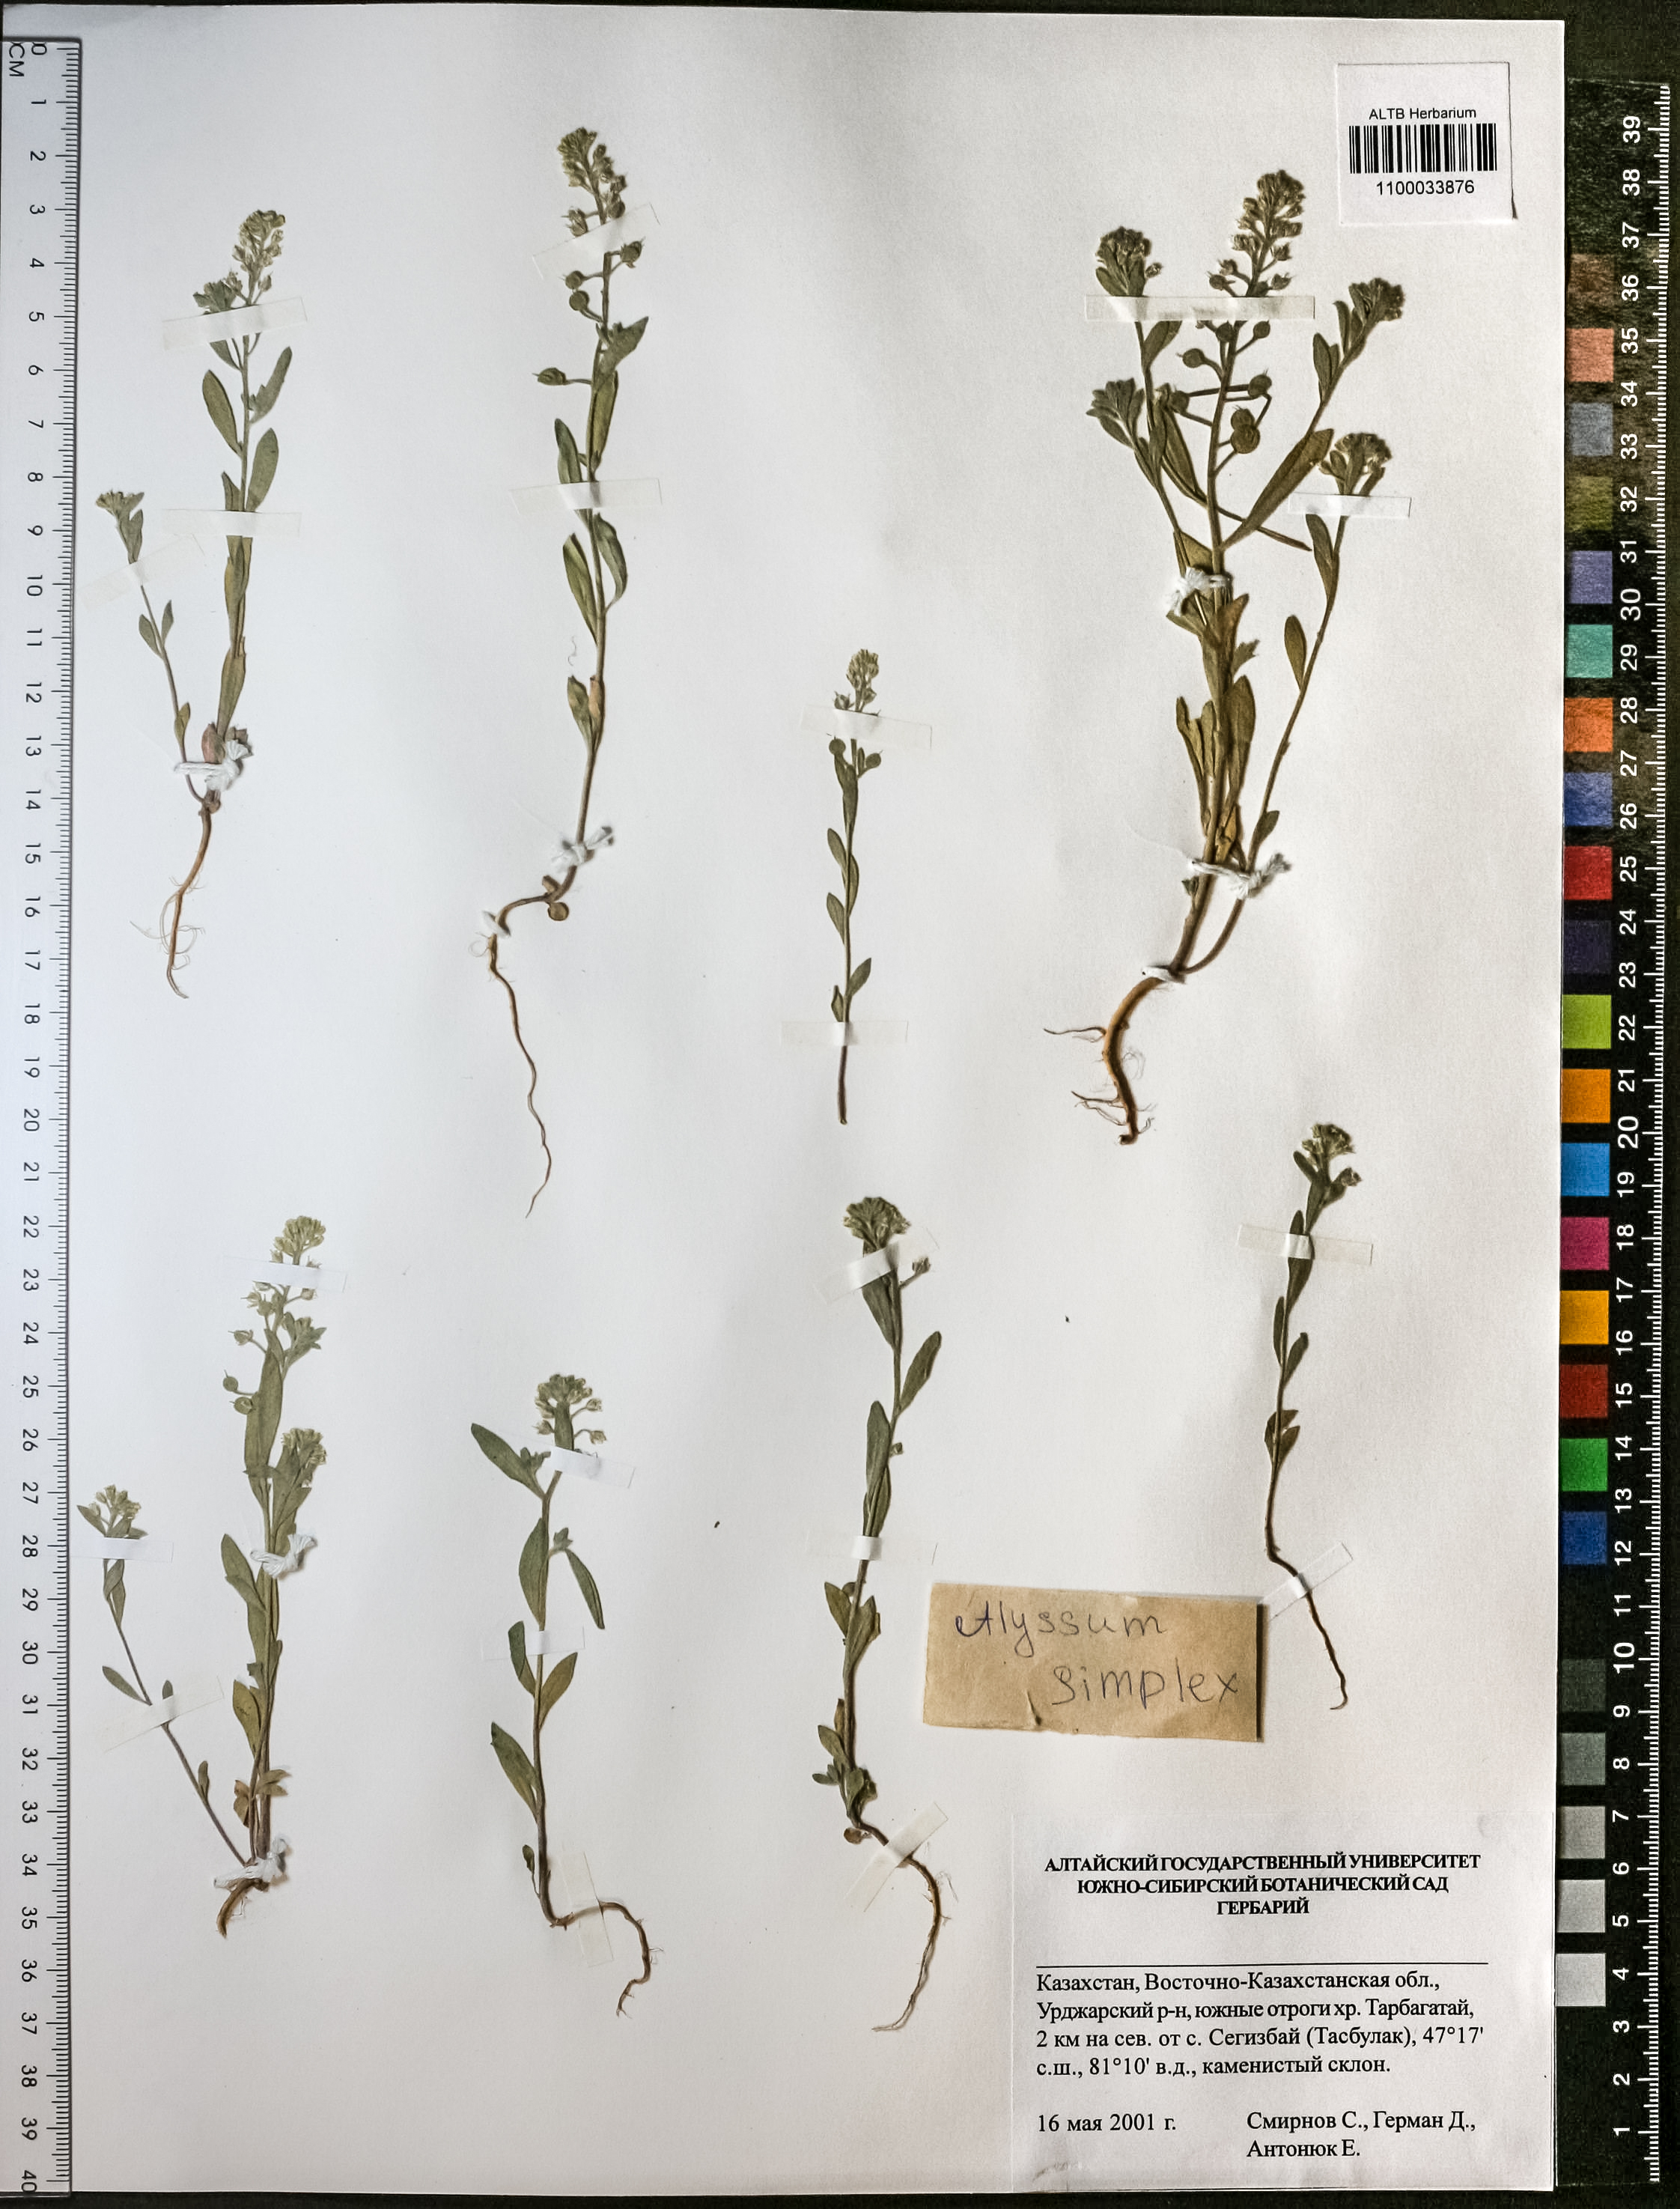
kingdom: Plantae
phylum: Tracheophyta
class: Magnoliopsida
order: Brassicales
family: Brassicaceae
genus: Alyssum
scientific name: Alyssum simplex
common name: Alyssum
